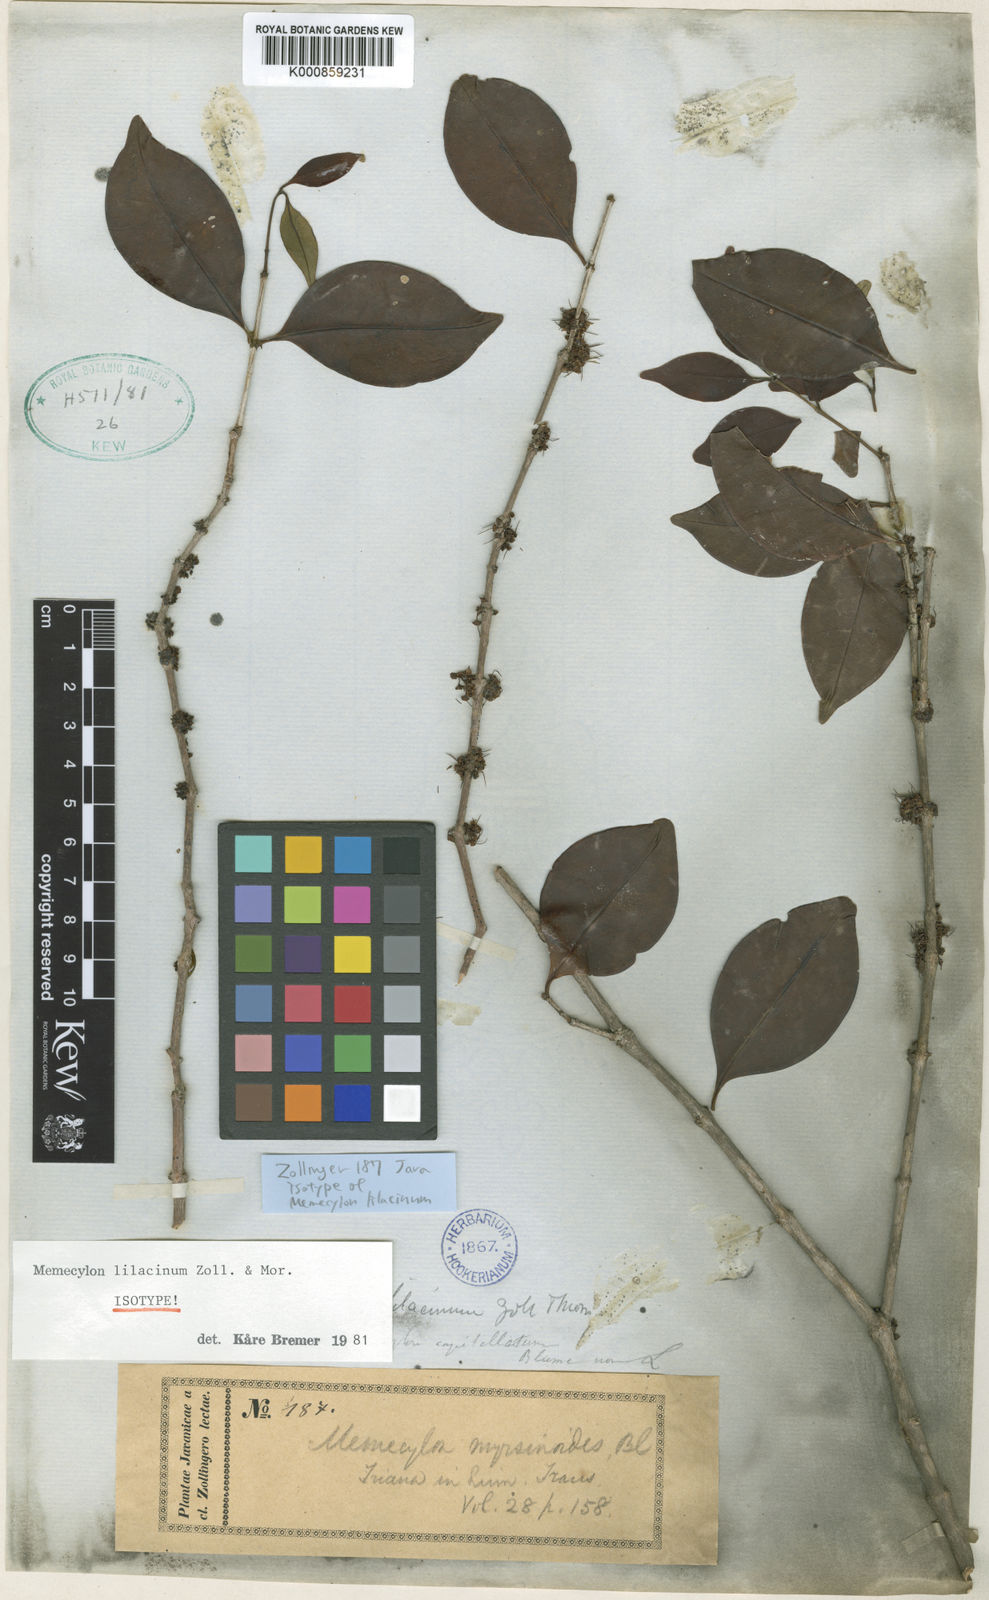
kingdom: Plantae
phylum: Tracheophyta
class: Magnoliopsida
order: Myrtales
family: Melastomataceae
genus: Memecylon
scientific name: Memecylon lilacinum
